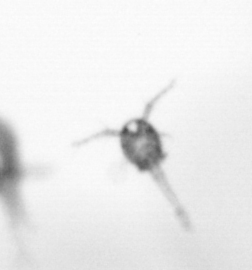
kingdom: Animalia
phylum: Arthropoda
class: Copepoda
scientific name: Copepoda
